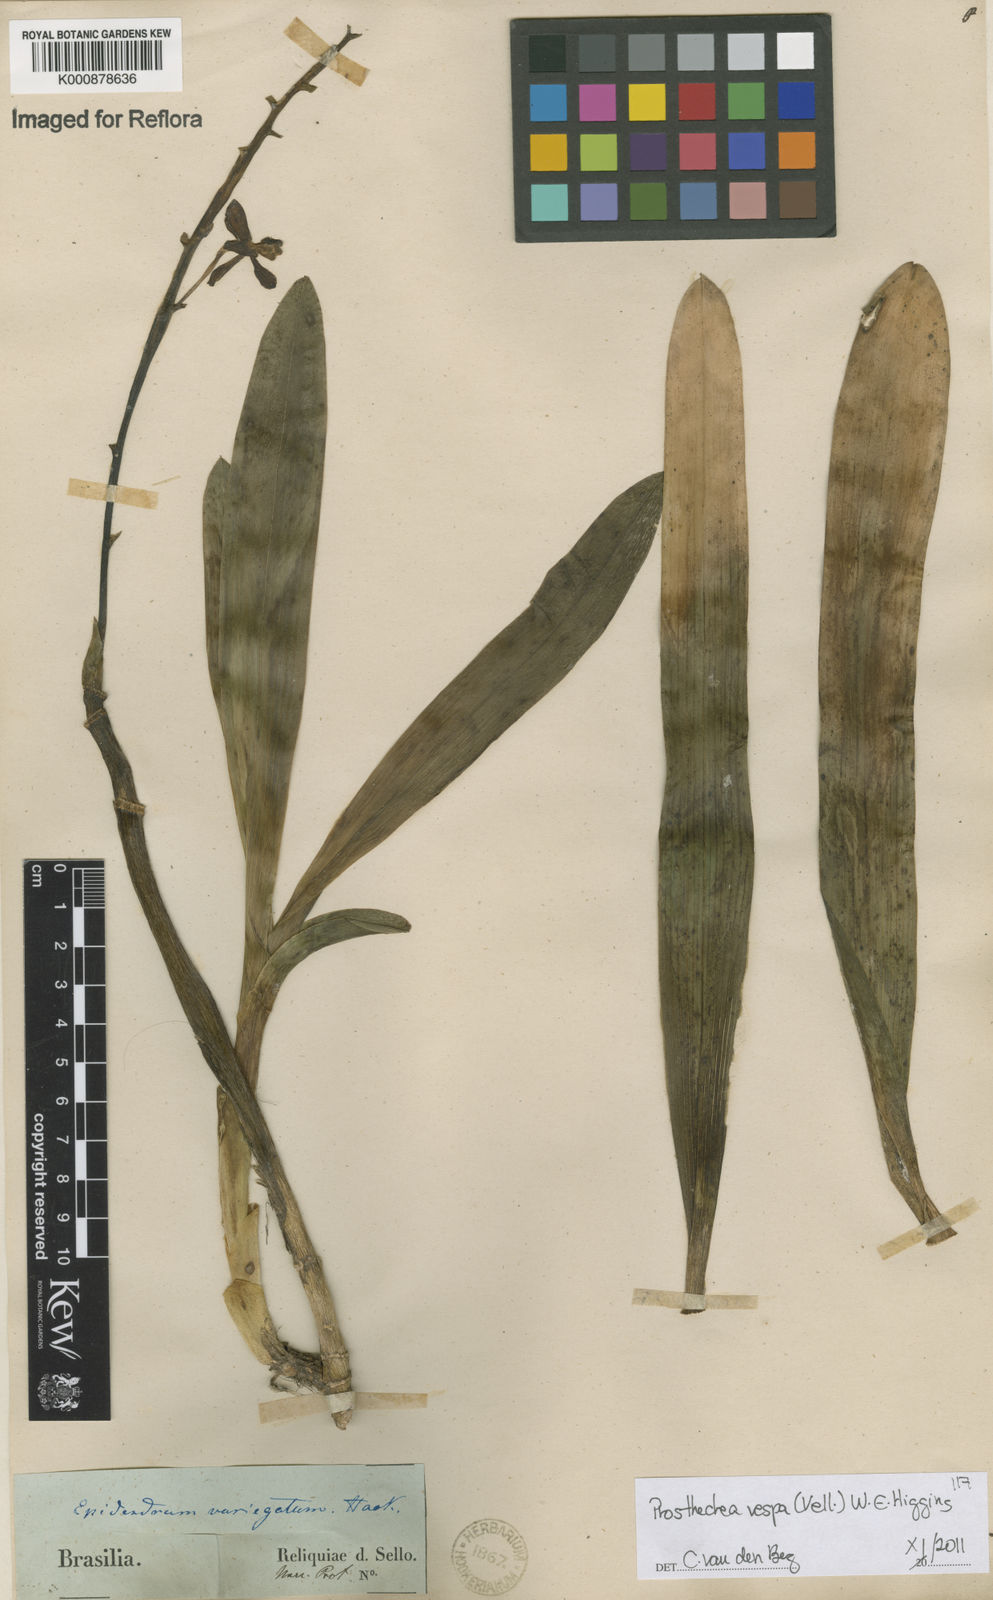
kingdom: Plantae
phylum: Tracheophyta
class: Liliopsida
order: Asparagales
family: Orchidaceae
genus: Prosthechea
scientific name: Prosthechea vespa
